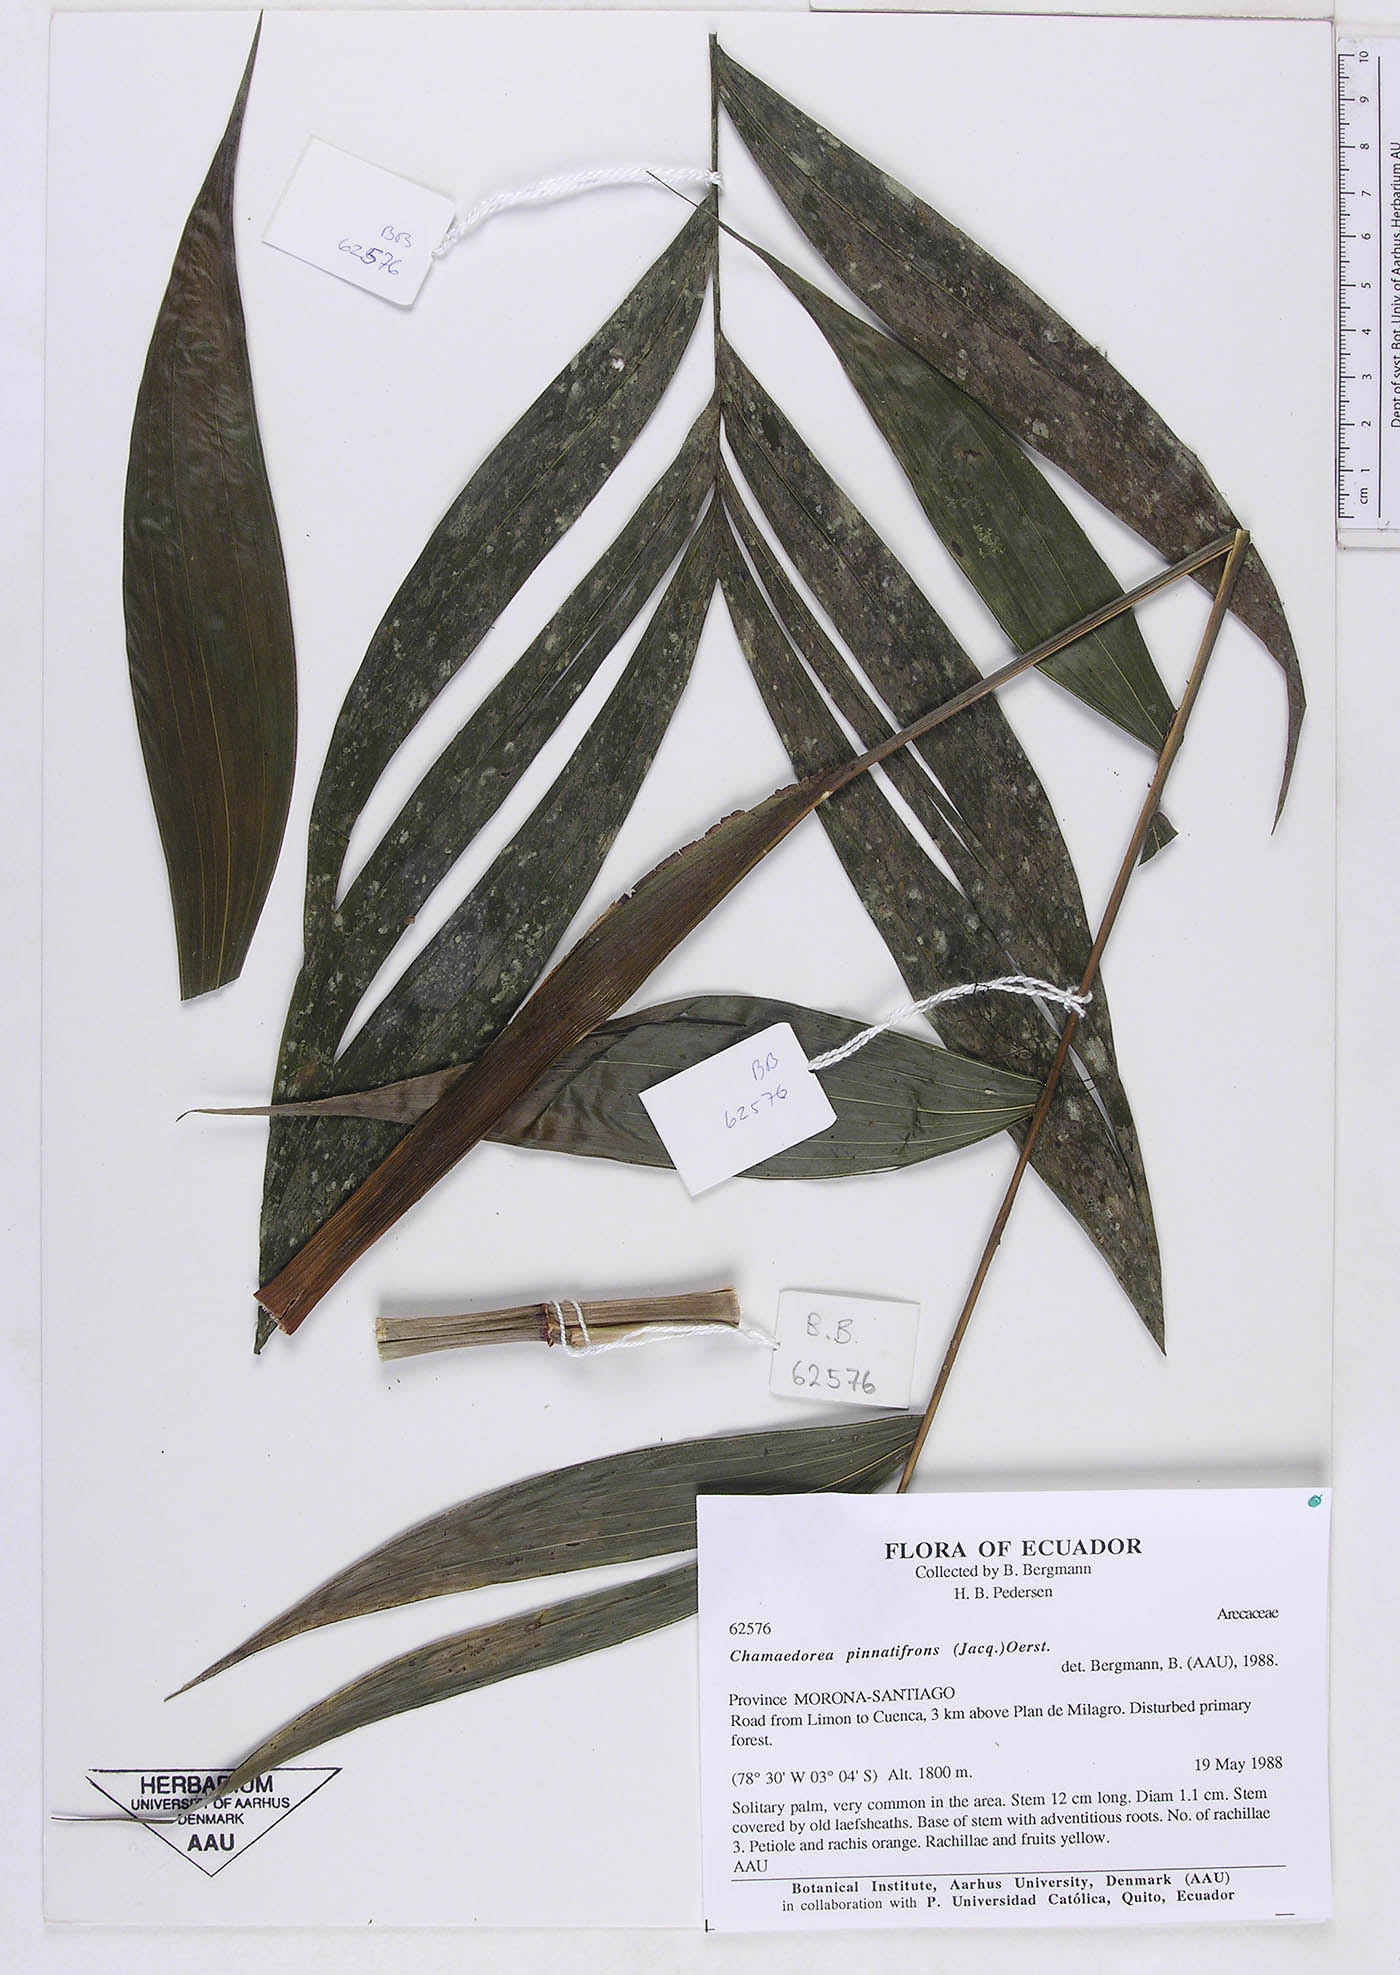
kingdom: Plantae
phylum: Tracheophyta
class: Liliopsida
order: Arecales
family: Arecaceae
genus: Chamaedorea
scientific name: Chamaedorea pinnatifrons
